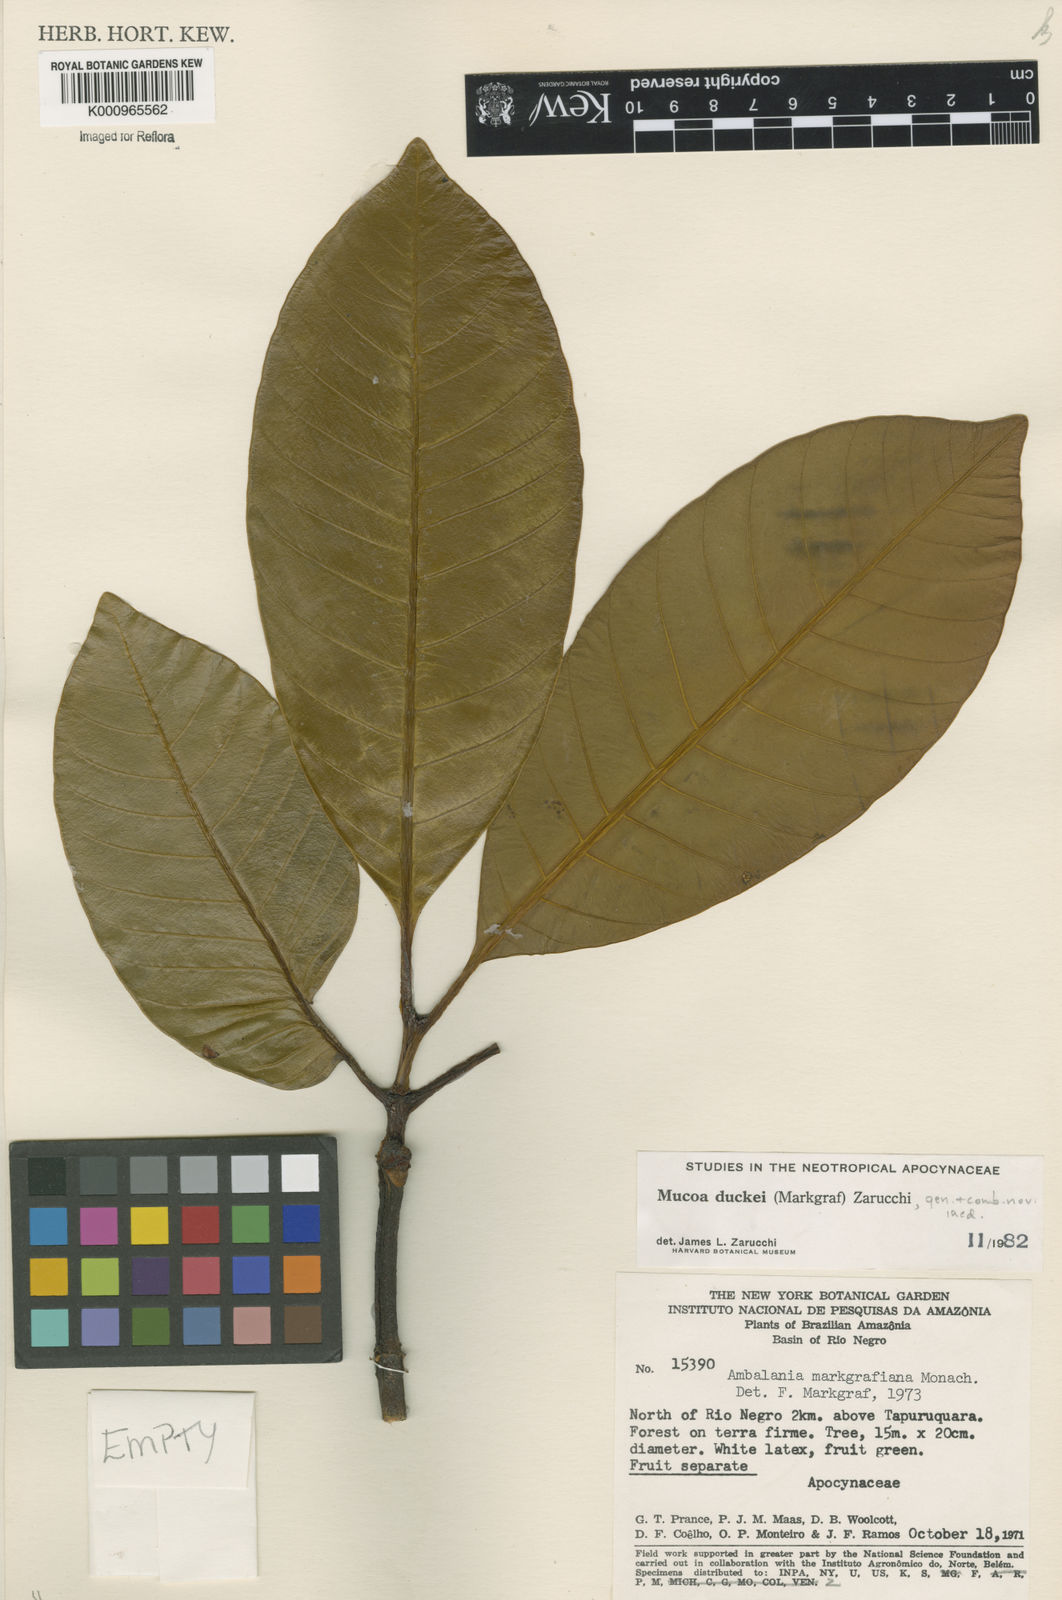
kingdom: Plantae
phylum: Tracheophyta
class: Magnoliopsida
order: Gentianales
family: Apocynaceae
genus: Mucoa
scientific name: Mucoa duckei
